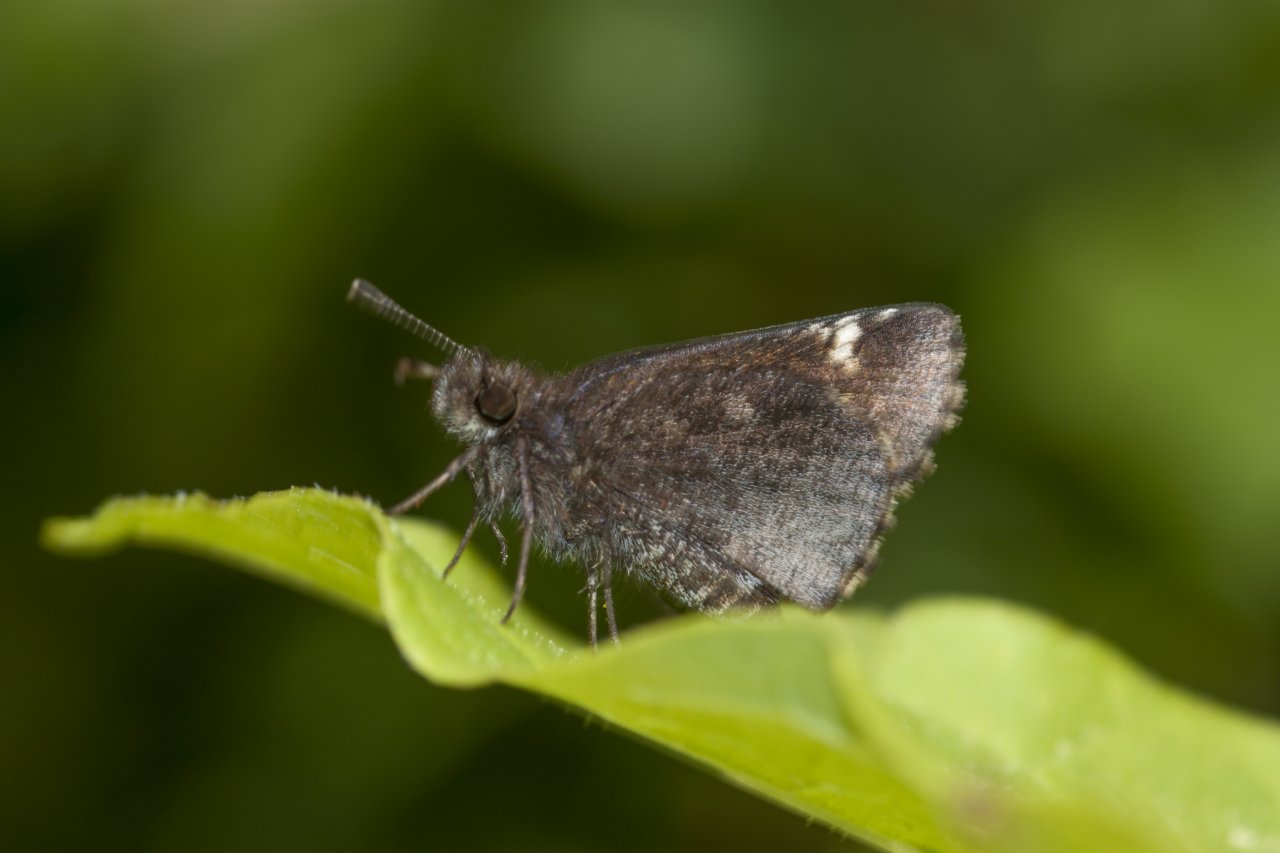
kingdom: Animalia
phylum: Arthropoda
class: Insecta
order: Lepidoptera
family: Hesperiidae
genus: Mastor
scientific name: Mastor vialis
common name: Common Roadside-Skipper
